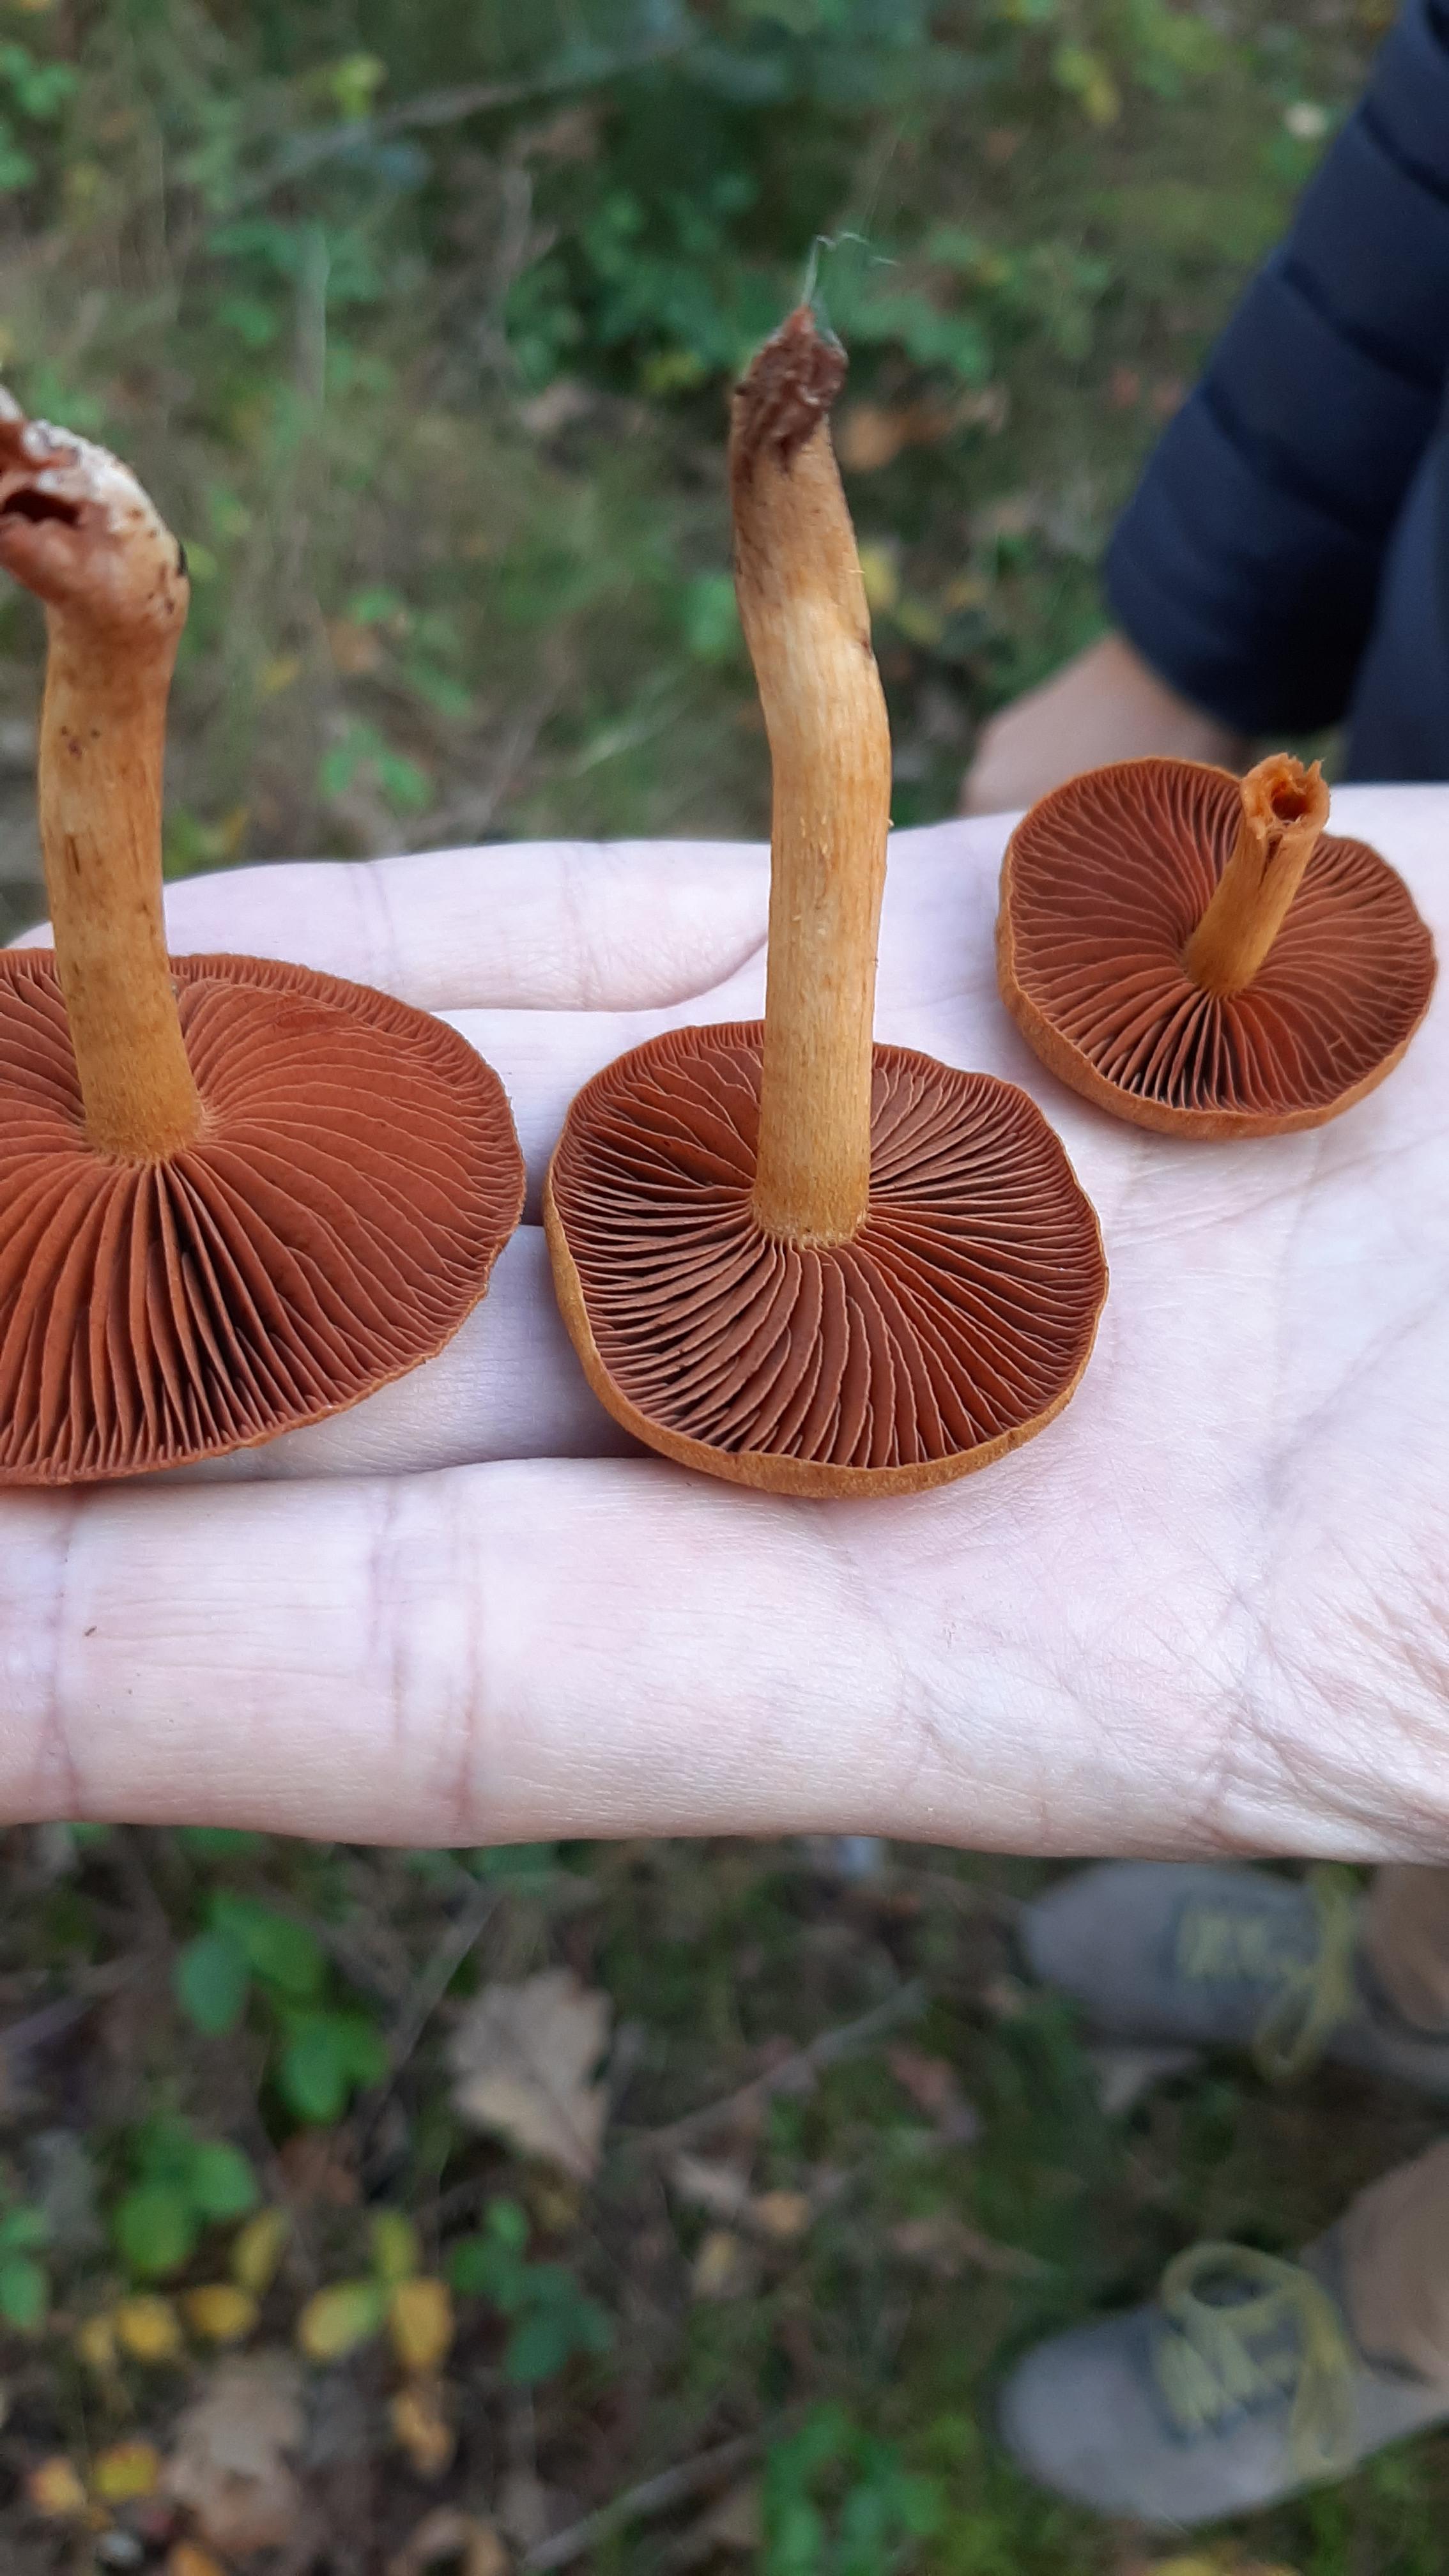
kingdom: Fungi
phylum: Basidiomycota
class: Agaricomycetes
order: Agaricales
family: Cortinariaceae
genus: Cortinarius
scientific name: Cortinarius
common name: cinnoberbladet slørhat
